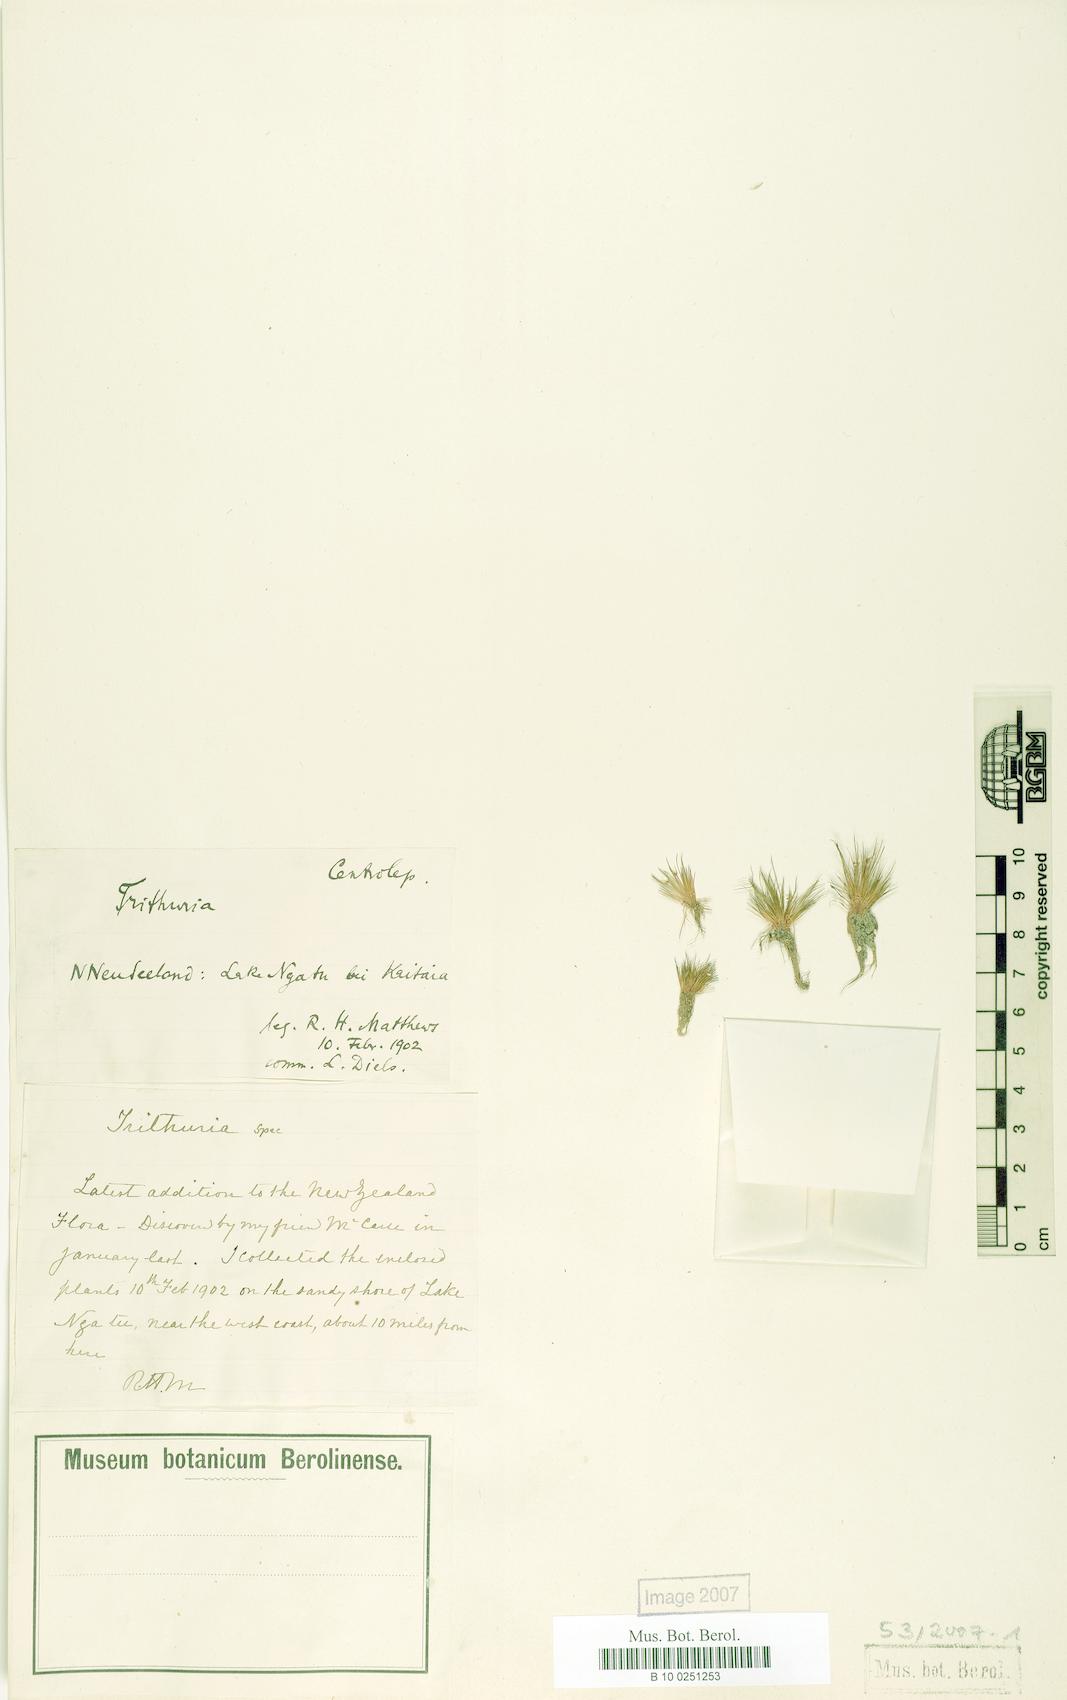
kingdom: Plantae
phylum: Tracheophyta
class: Magnoliopsida
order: Nymphaeales
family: Hydatellaceae
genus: Trithuria
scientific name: Trithuria inconspicua
